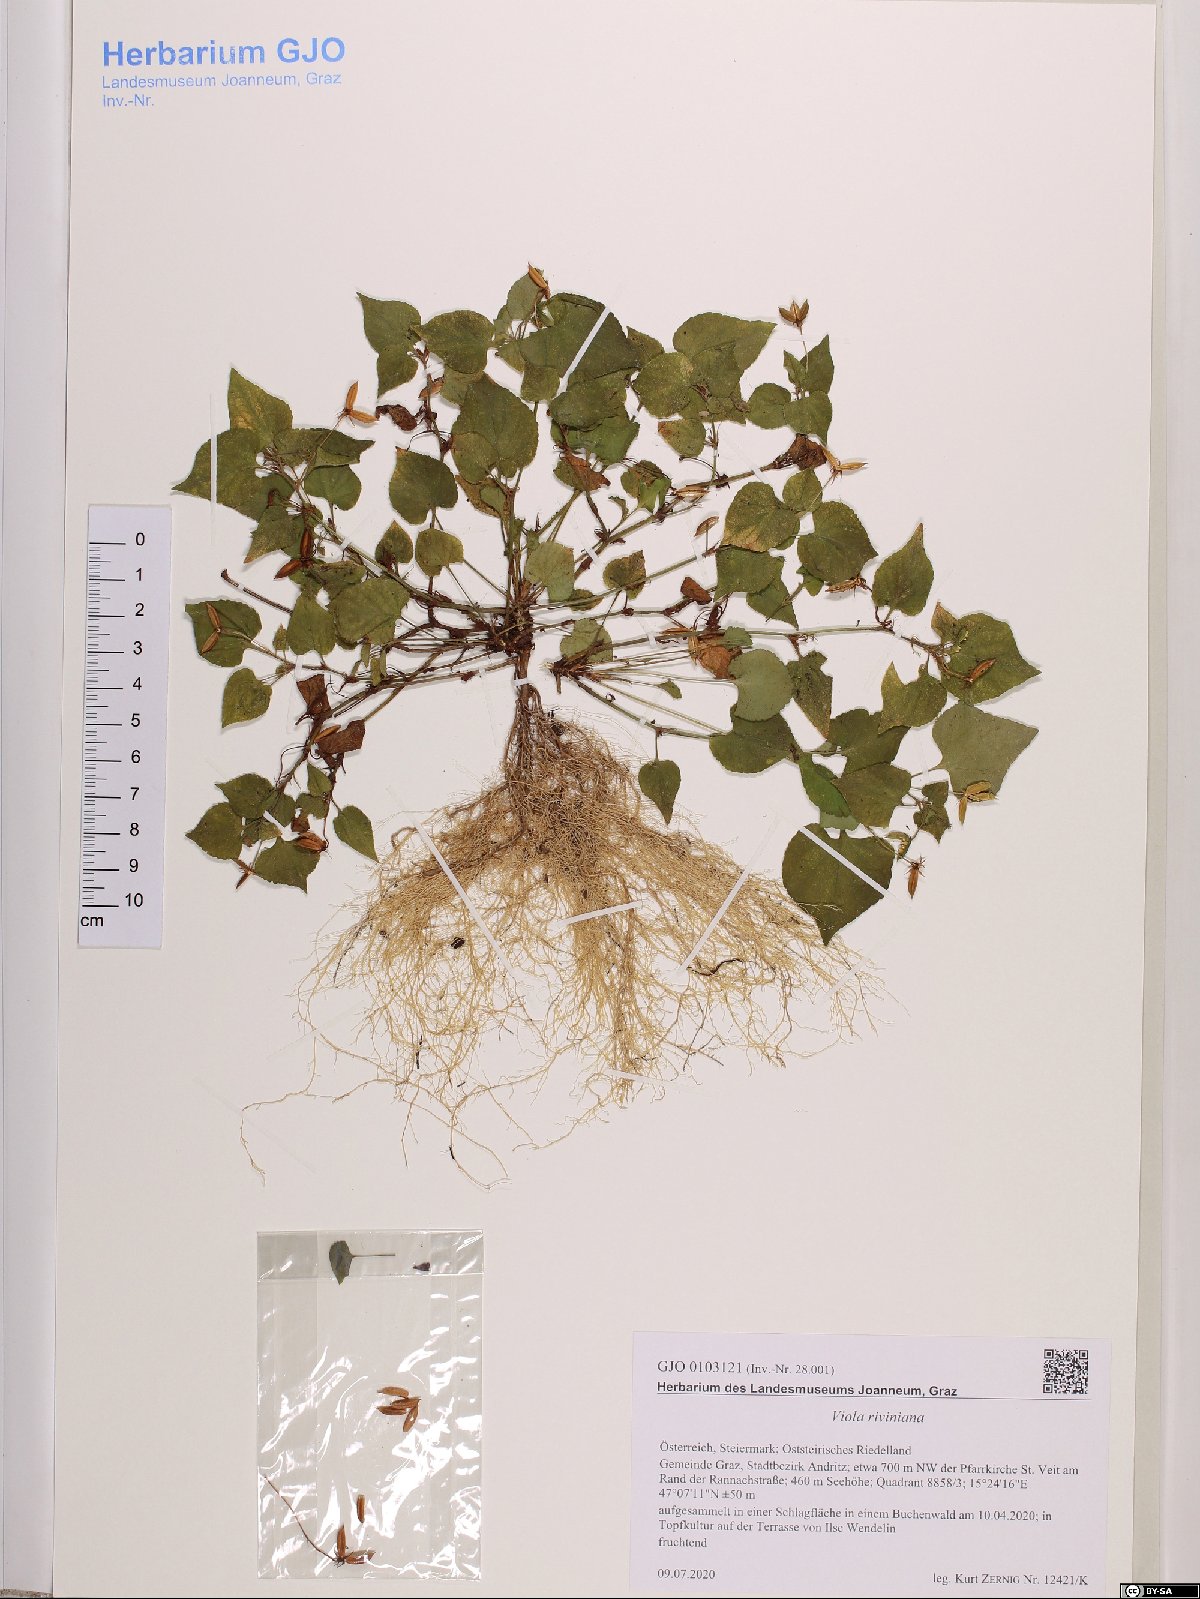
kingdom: Plantae
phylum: Tracheophyta
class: Magnoliopsida
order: Malpighiales
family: Violaceae
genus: Viola
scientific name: Viola riviniana
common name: Common dog-violet
